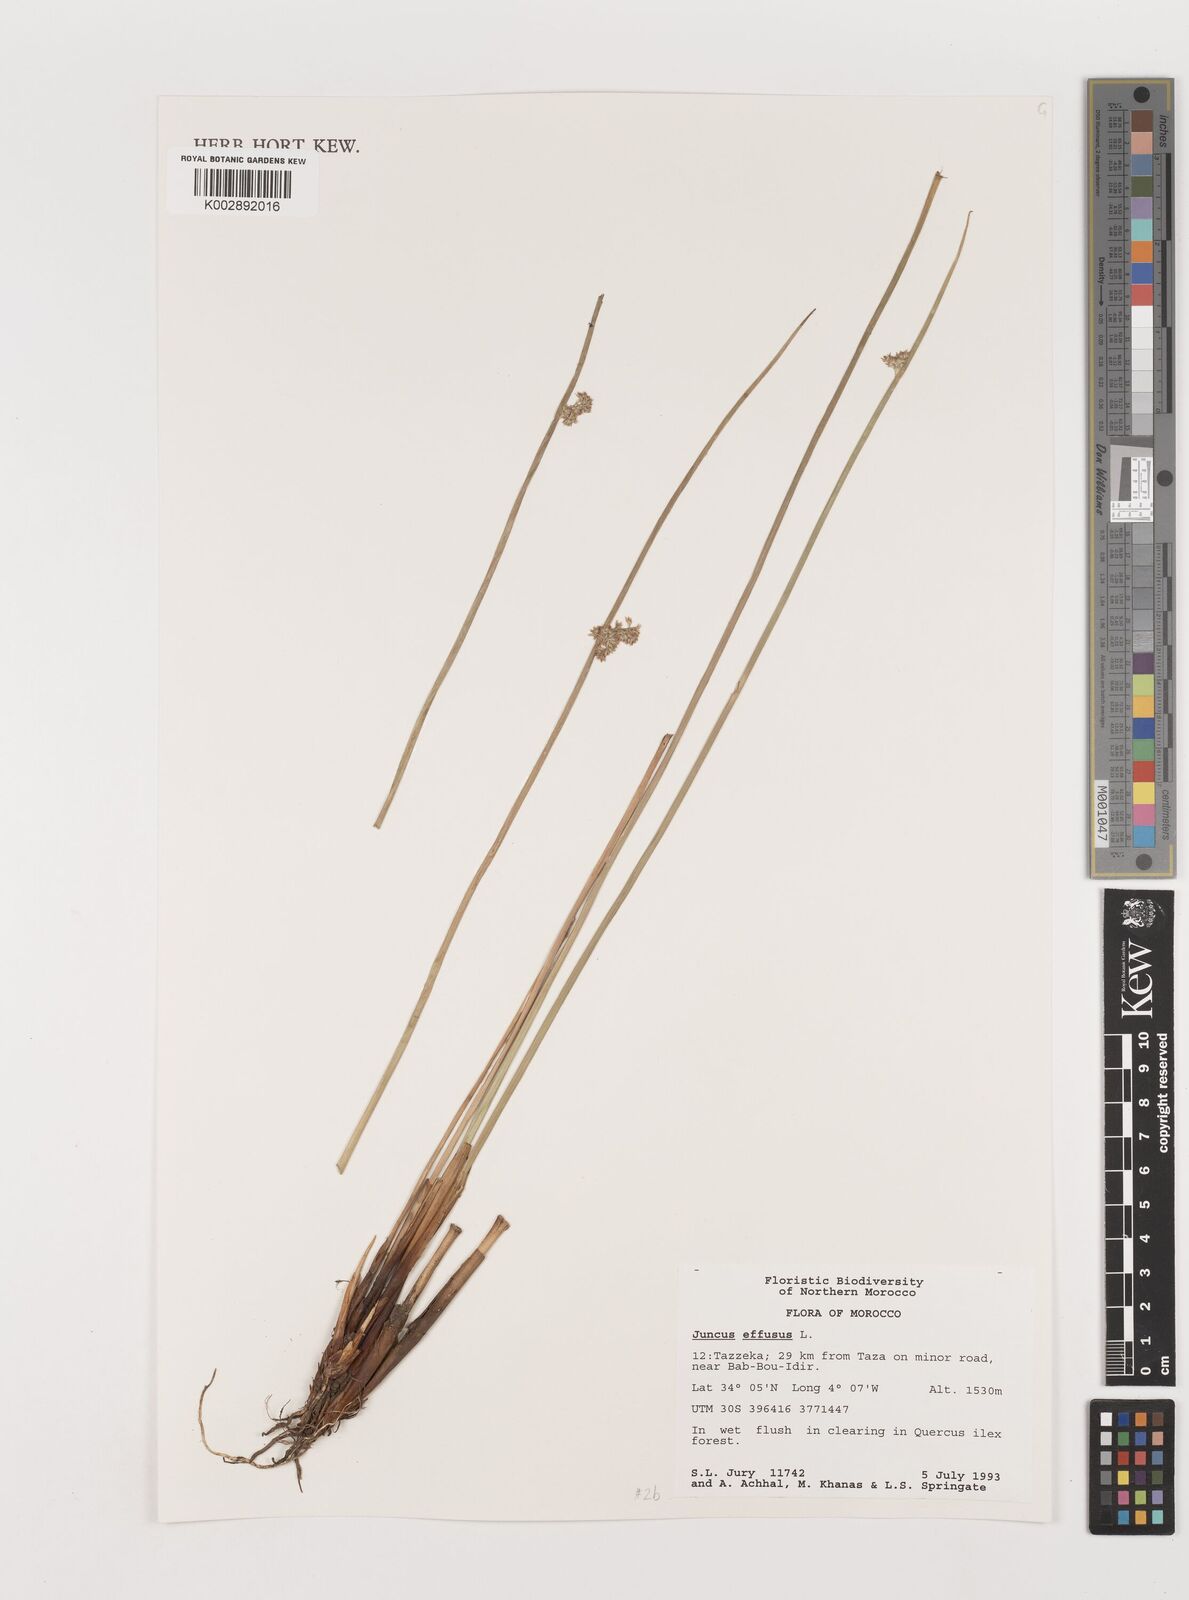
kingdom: Plantae
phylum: Tracheophyta
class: Liliopsida
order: Poales
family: Juncaceae
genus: Juncus
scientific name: Juncus effusus
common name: Soft rush
